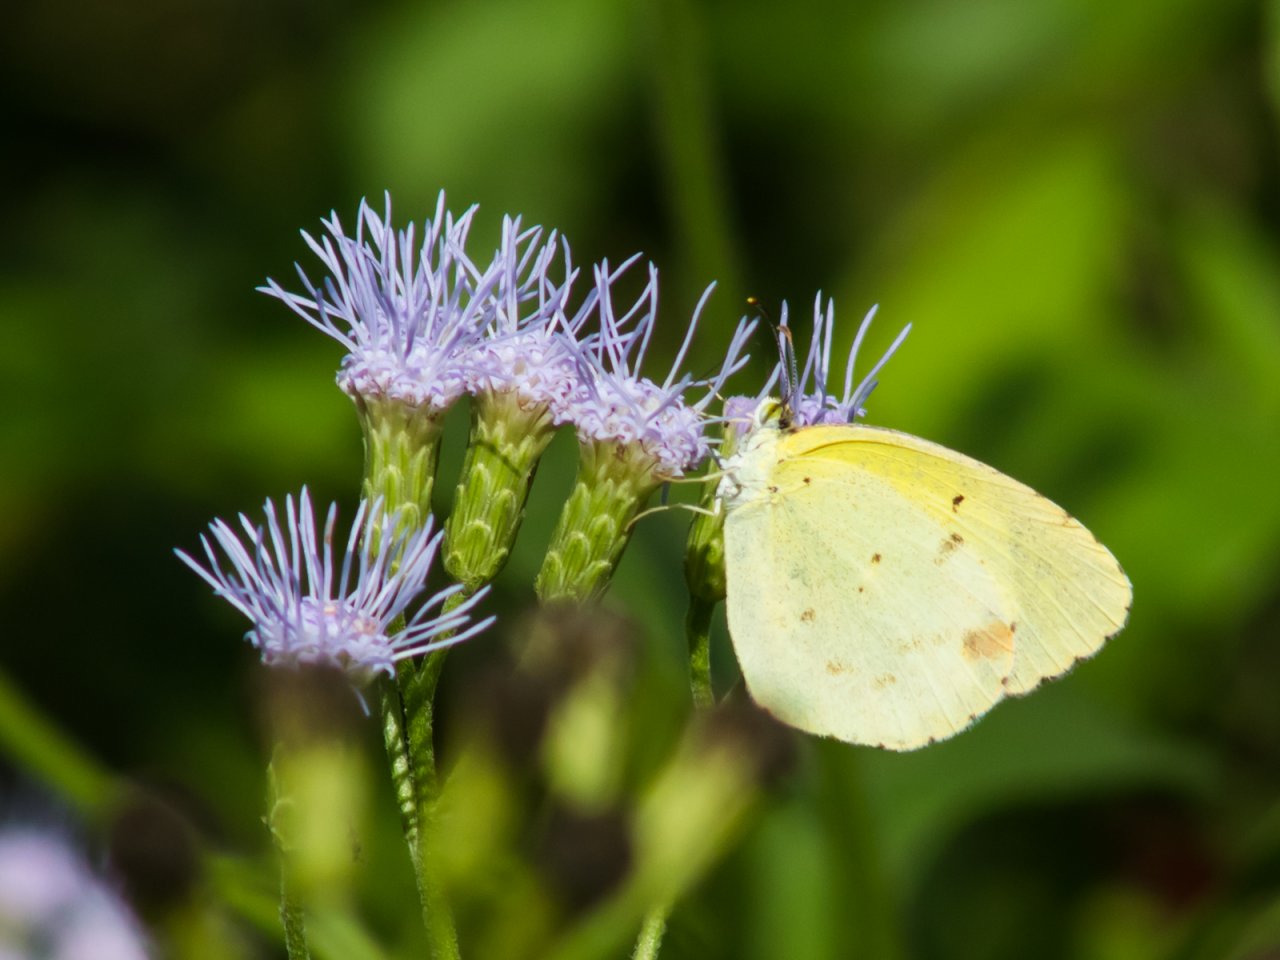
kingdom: Animalia
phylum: Arthropoda
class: Insecta
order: Lepidoptera
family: Pieridae
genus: Pyrisitia
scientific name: Pyrisitia lisa
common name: Little Yellow
